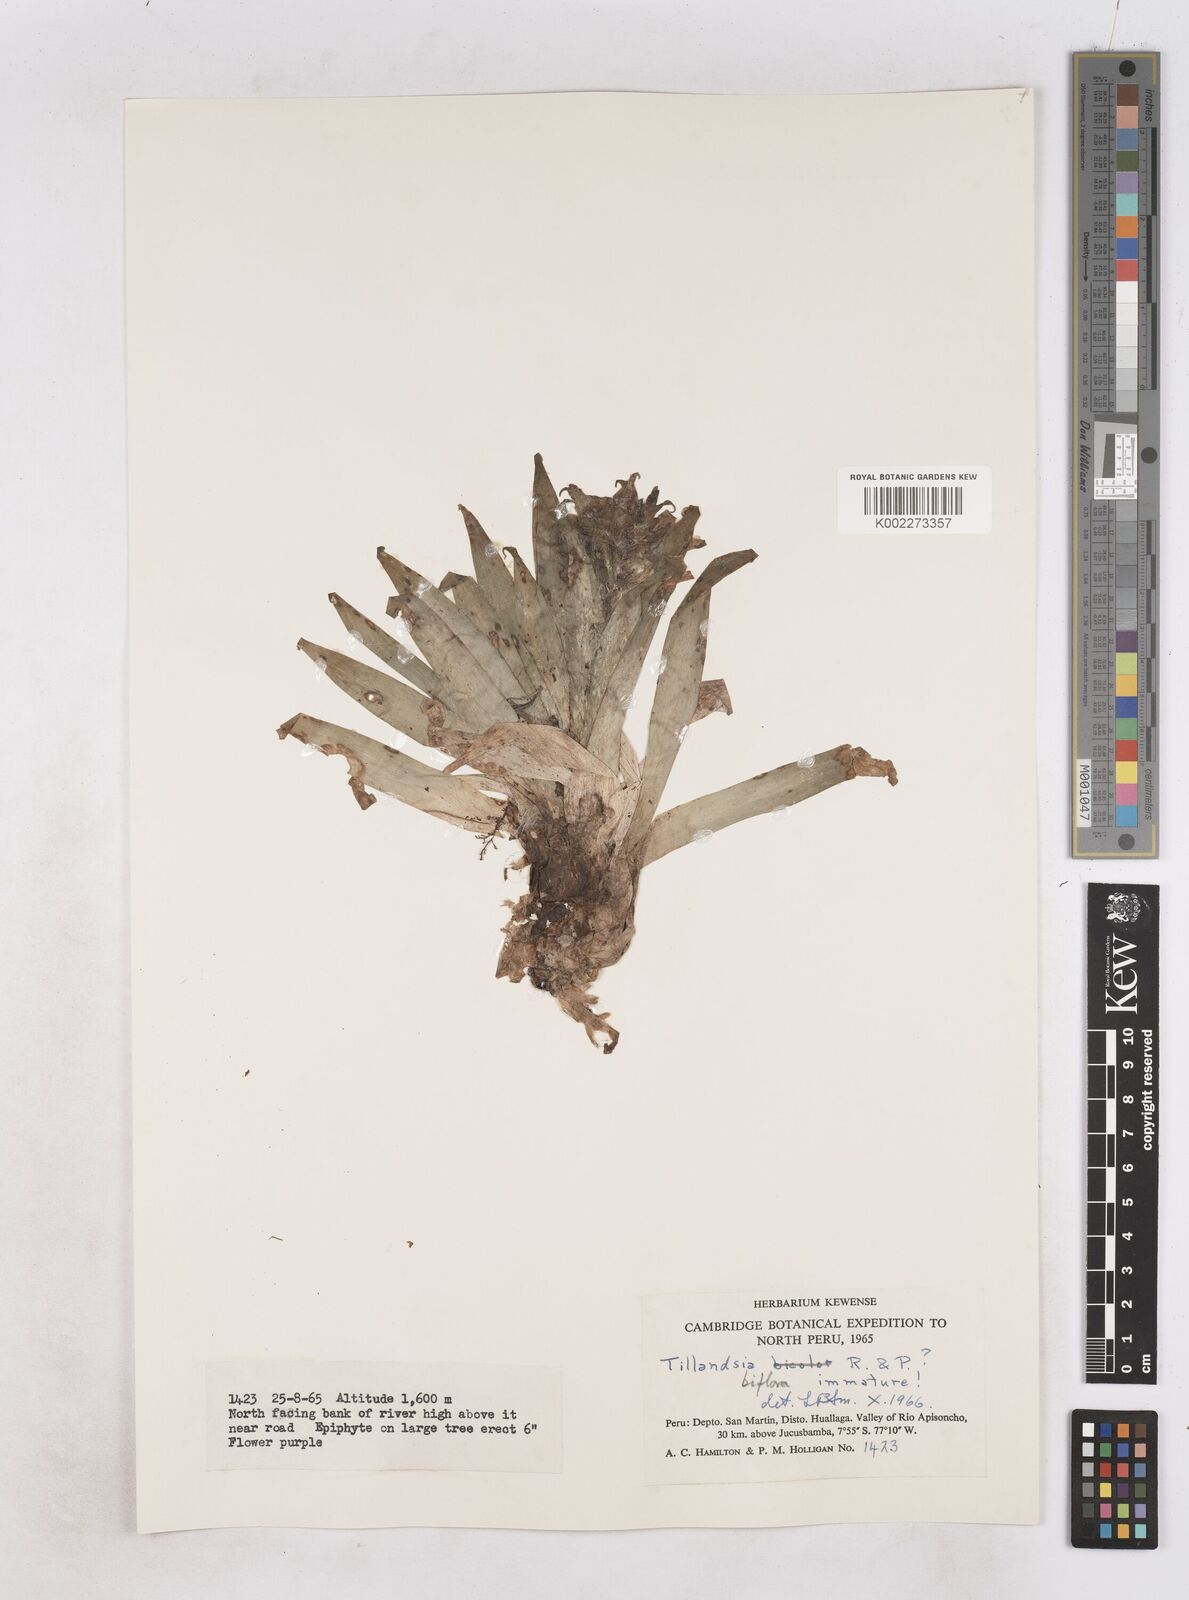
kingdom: Plantae
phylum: Tracheophyta
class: Liliopsida
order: Poales
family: Bromeliaceae
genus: Tillandsia
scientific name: Tillandsia biflora
